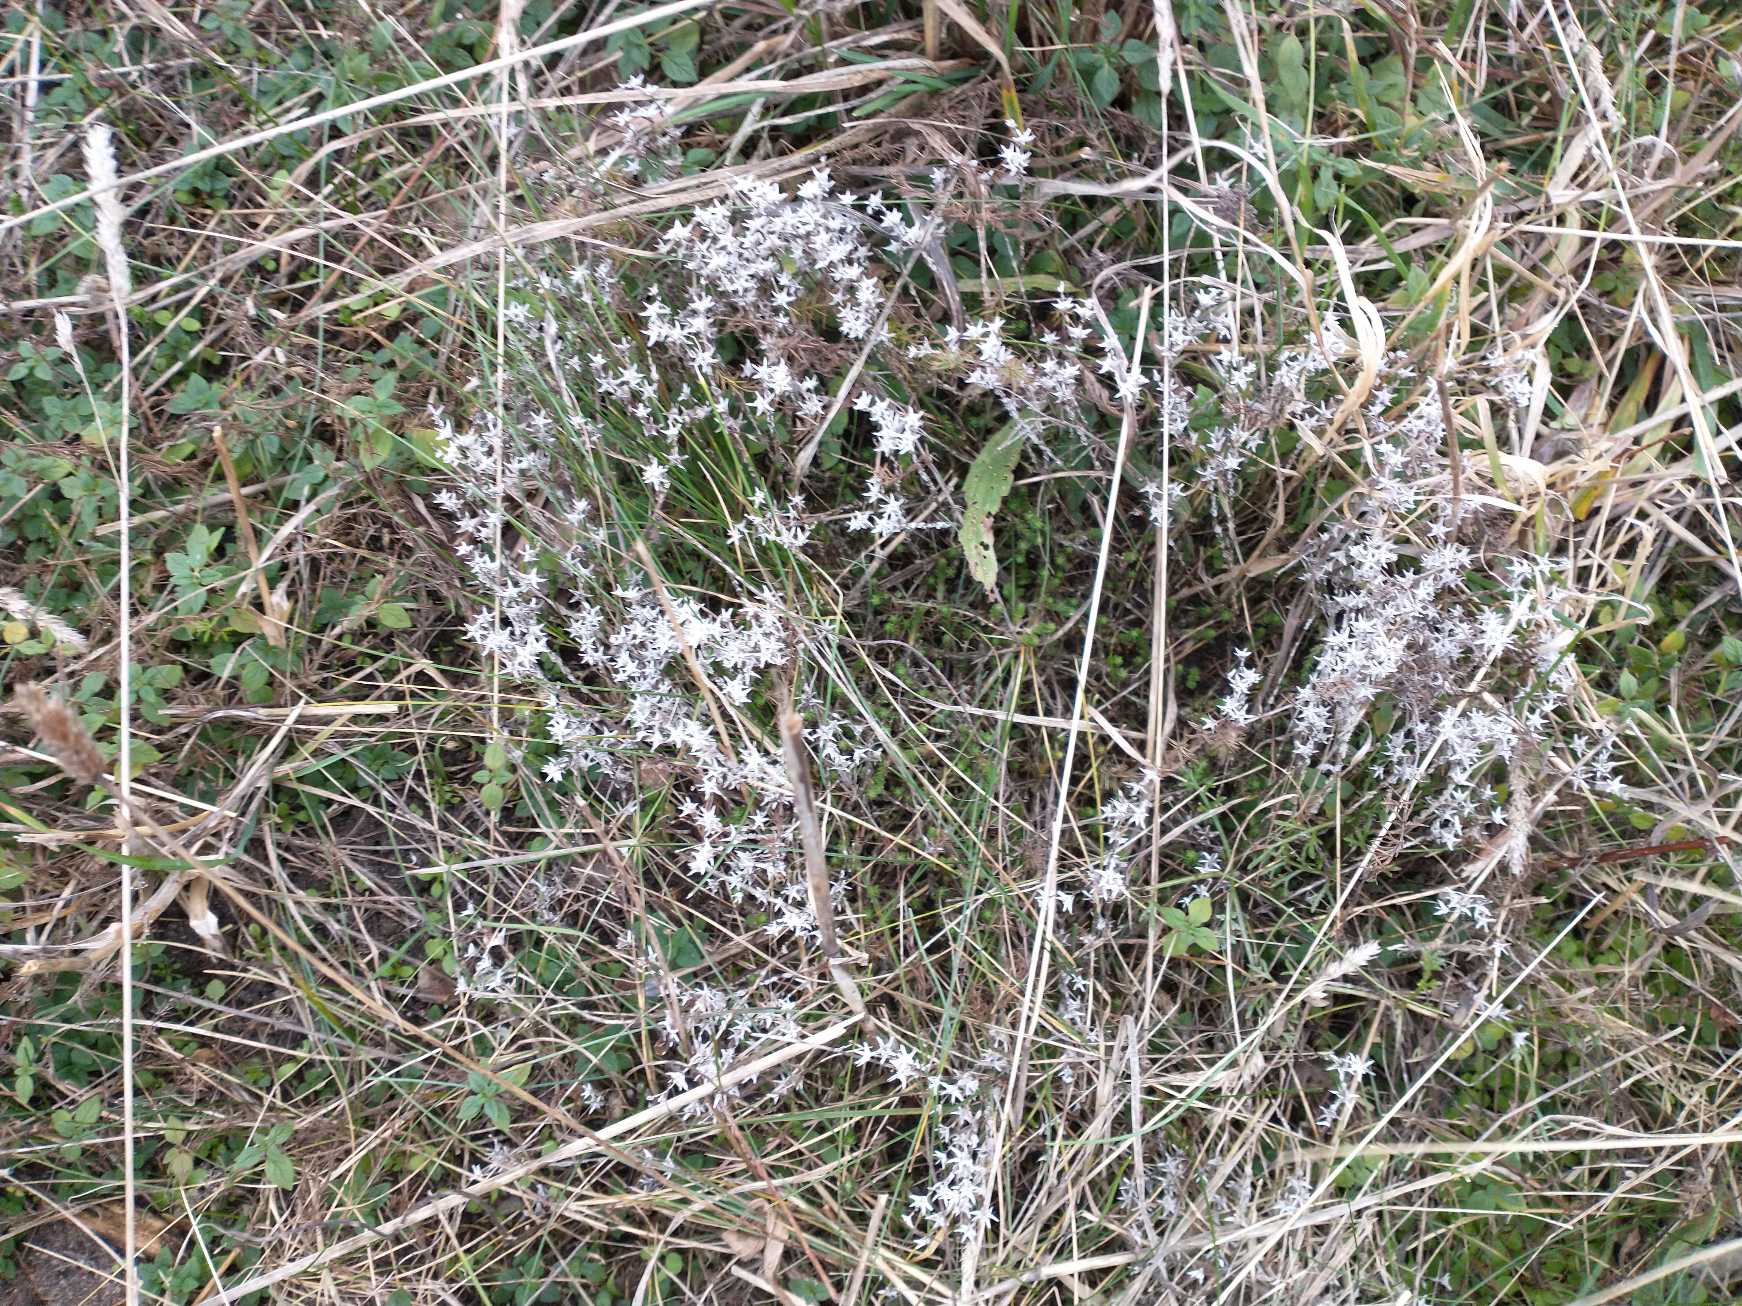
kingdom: Plantae
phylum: Tracheophyta
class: Magnoliopsida
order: Saxifragales
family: Crassulaceae
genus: Sedum
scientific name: Sedum acre
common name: Bidende stenurt
